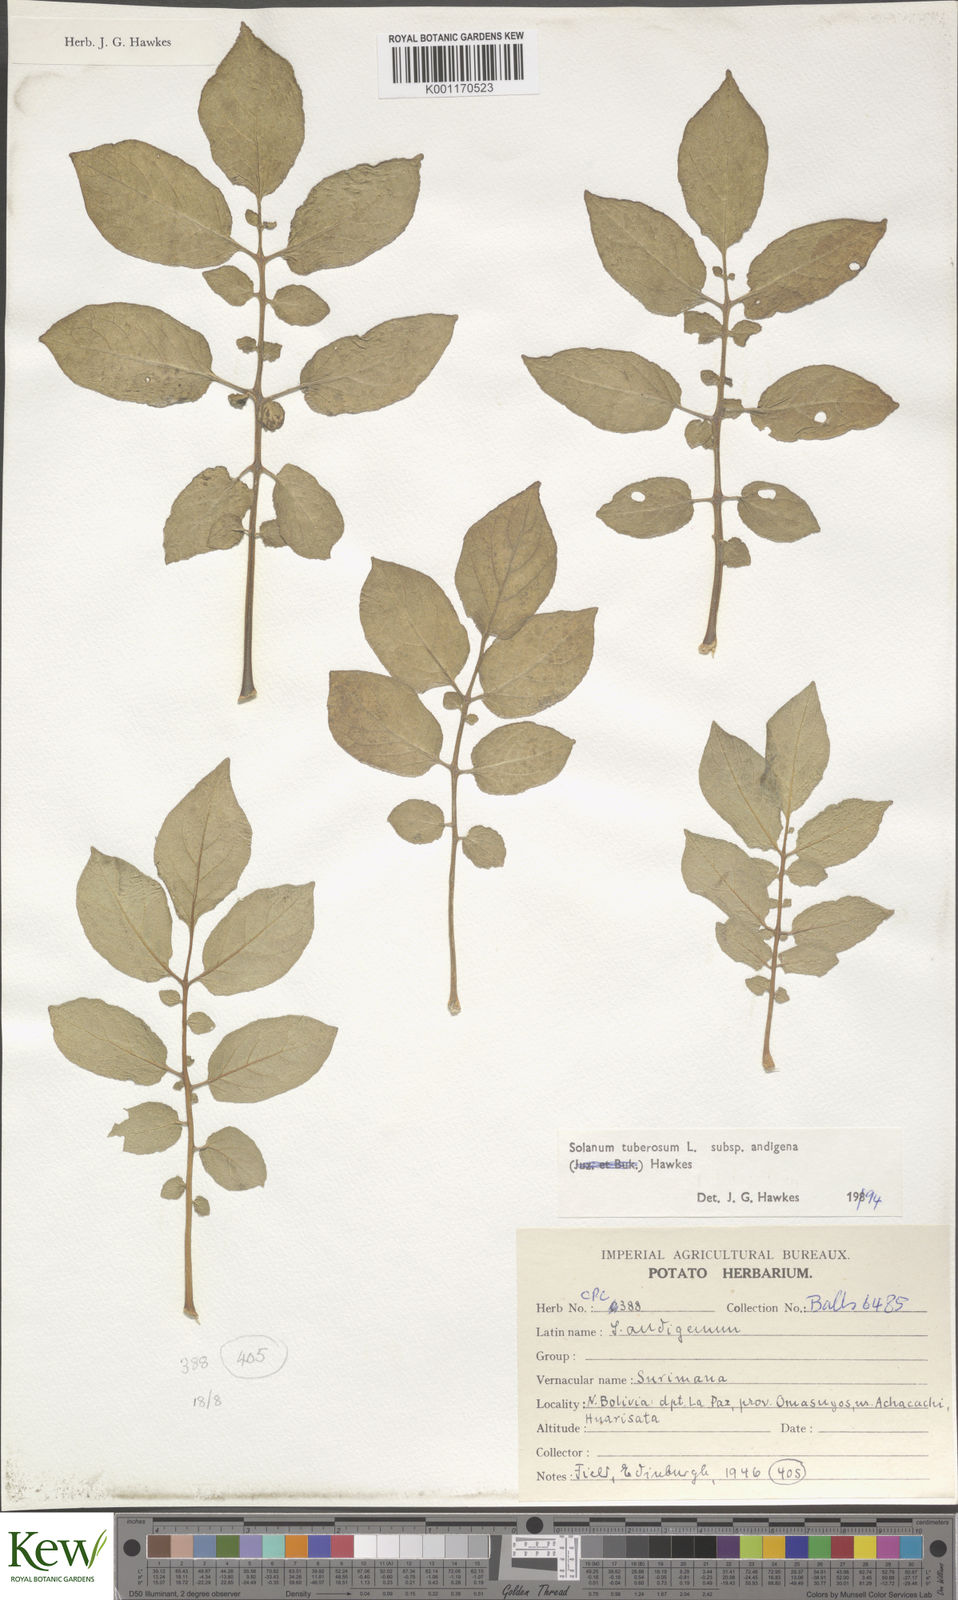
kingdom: Plantae
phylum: Tracheophyta
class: Magnoliopsida
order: Solanales
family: Solanaceae
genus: Solanum
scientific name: Solanum tuberosum
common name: Potato
